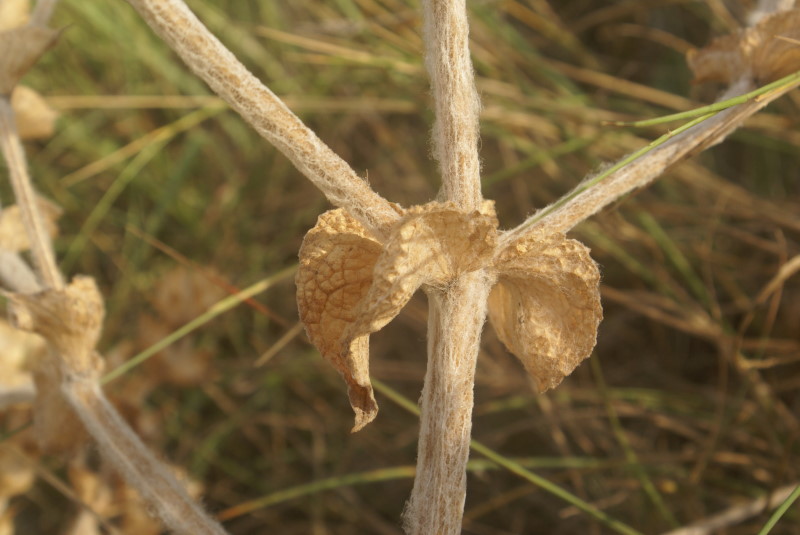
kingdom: Plantae
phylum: Tracheophyta
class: Magnoliopsida
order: Lamiales
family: Lamiaceae
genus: Salvia
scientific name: Salvia aethiopis
